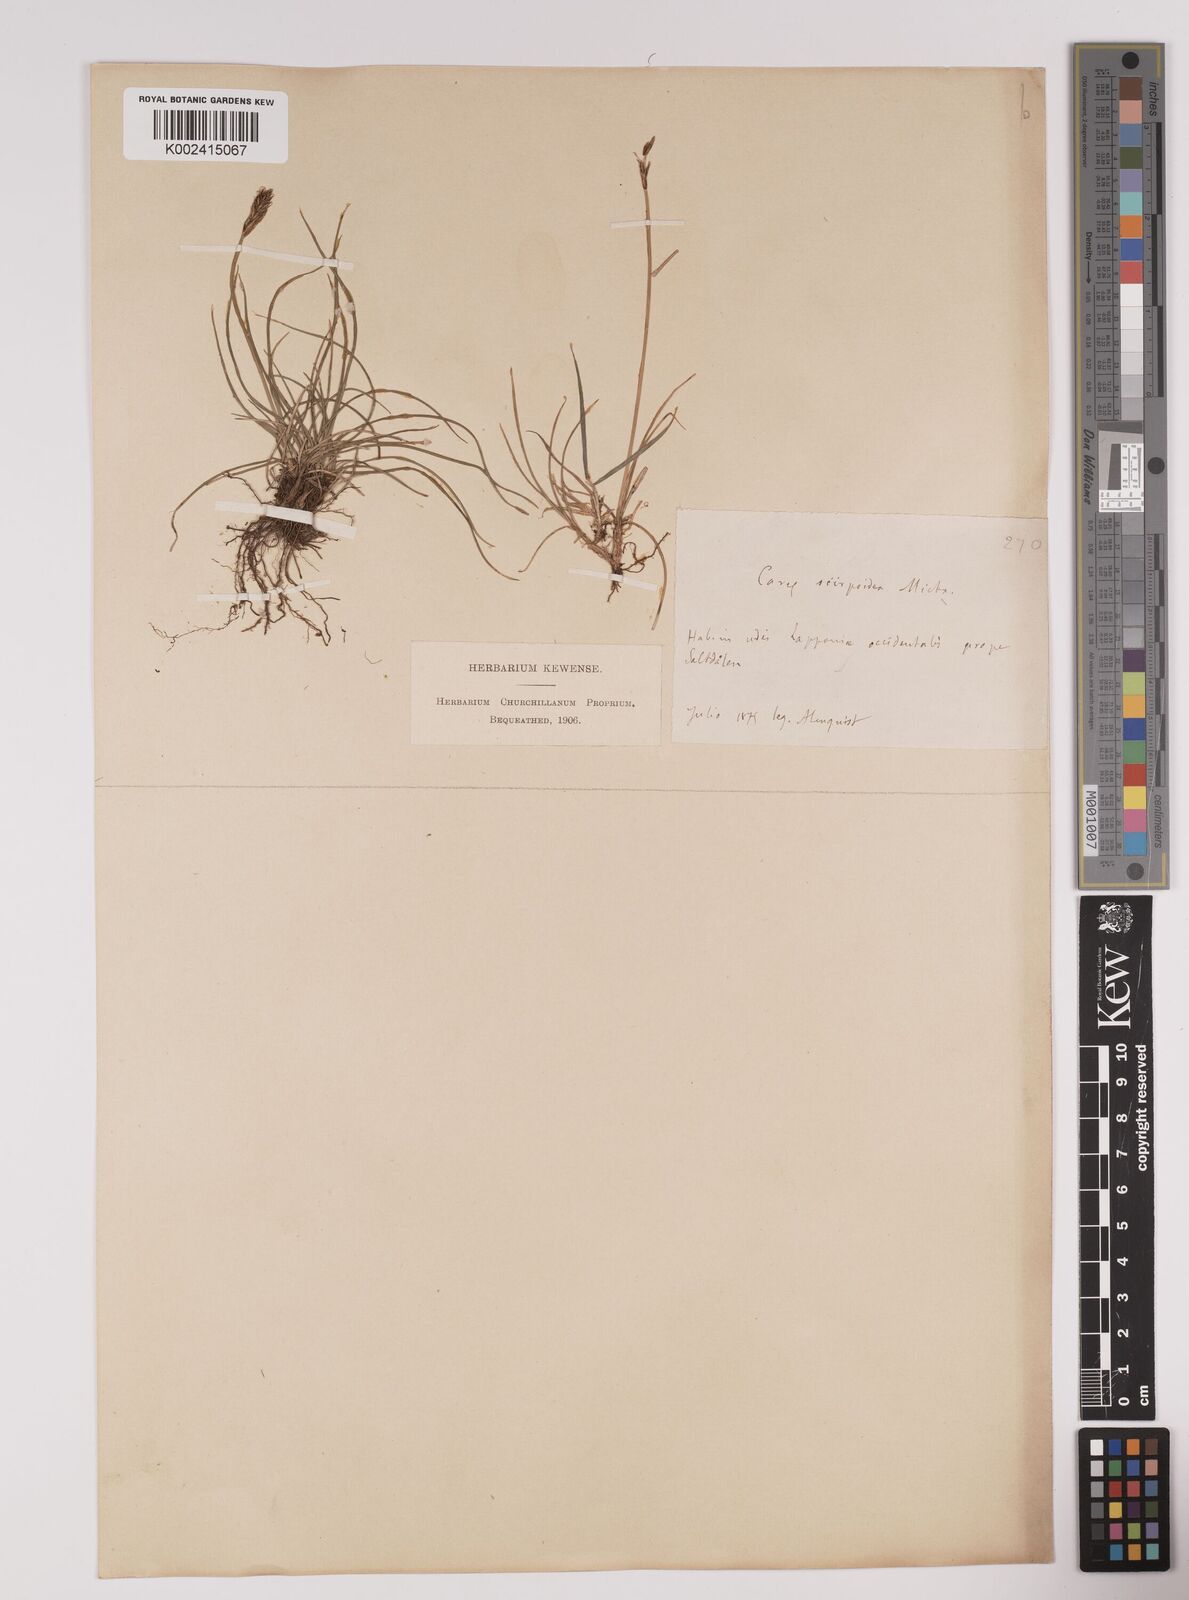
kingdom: Plantae
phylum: Tracheophyta
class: Liliopsida
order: Poales
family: Cyperaceae
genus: Carex
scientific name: Carex
